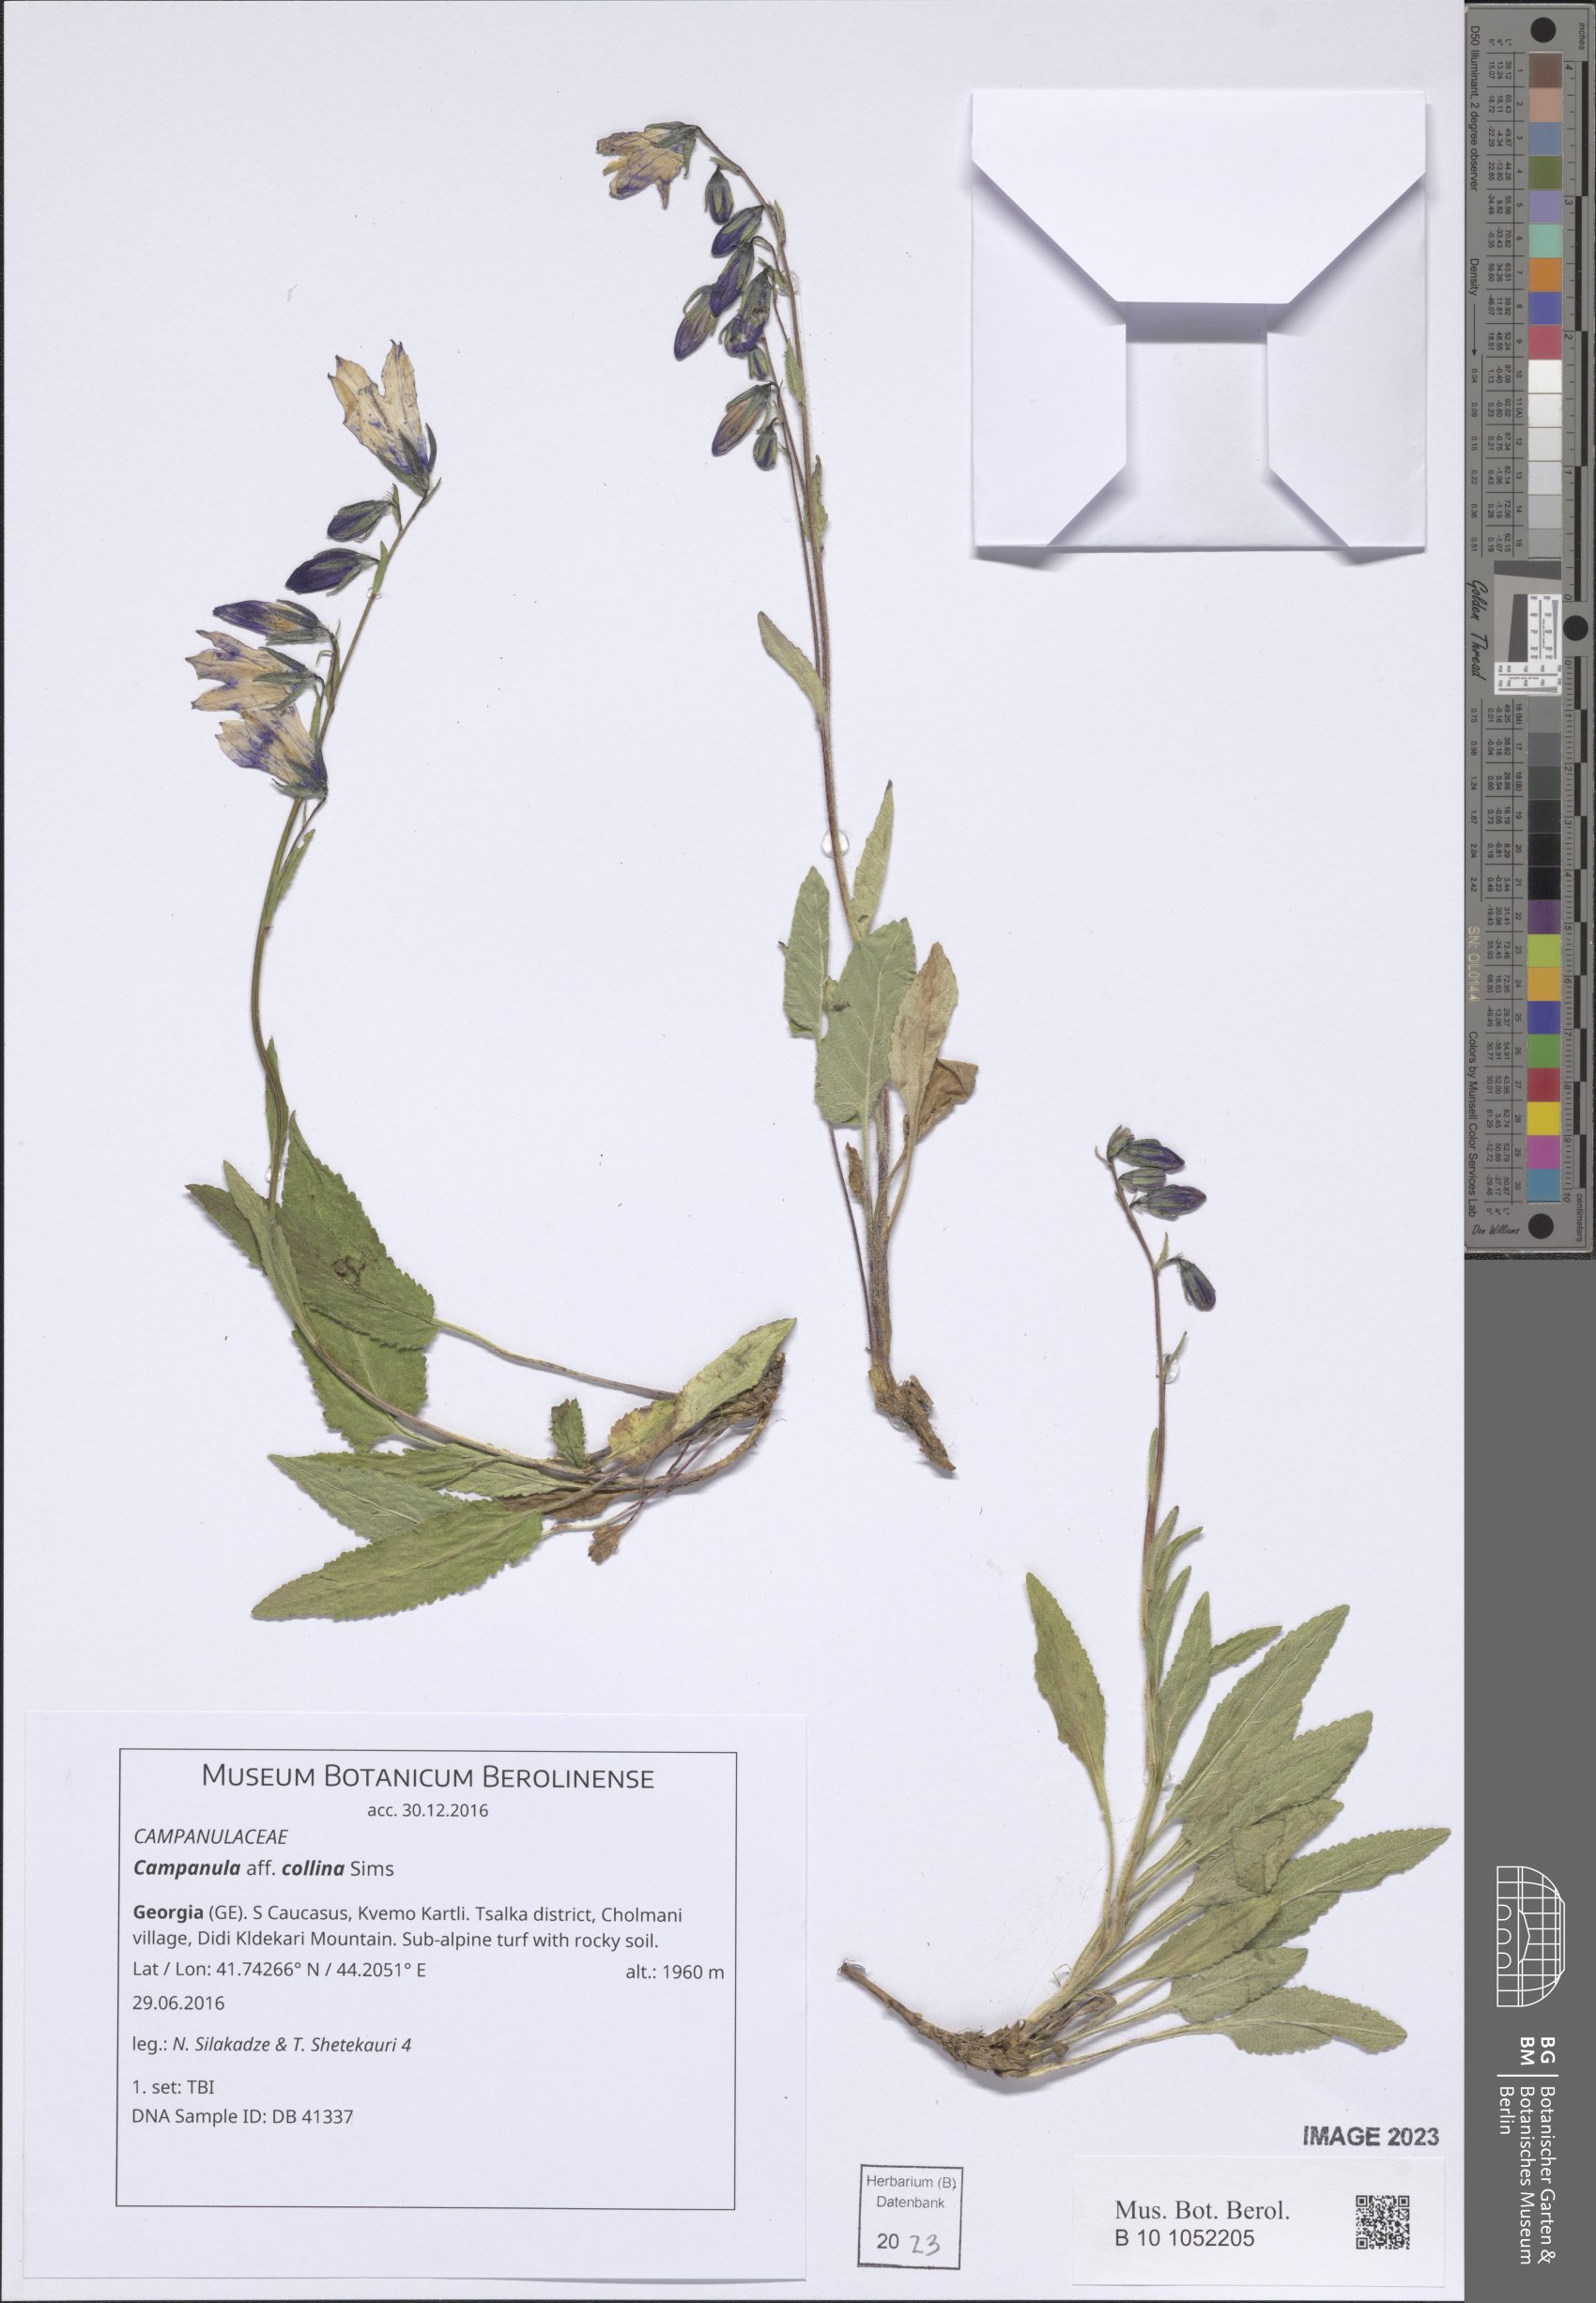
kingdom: Plantae
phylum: Tracheophyta
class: Magnoliopsida
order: Asterales
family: Campanulaceae
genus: Campanula
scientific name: Campanula collina
